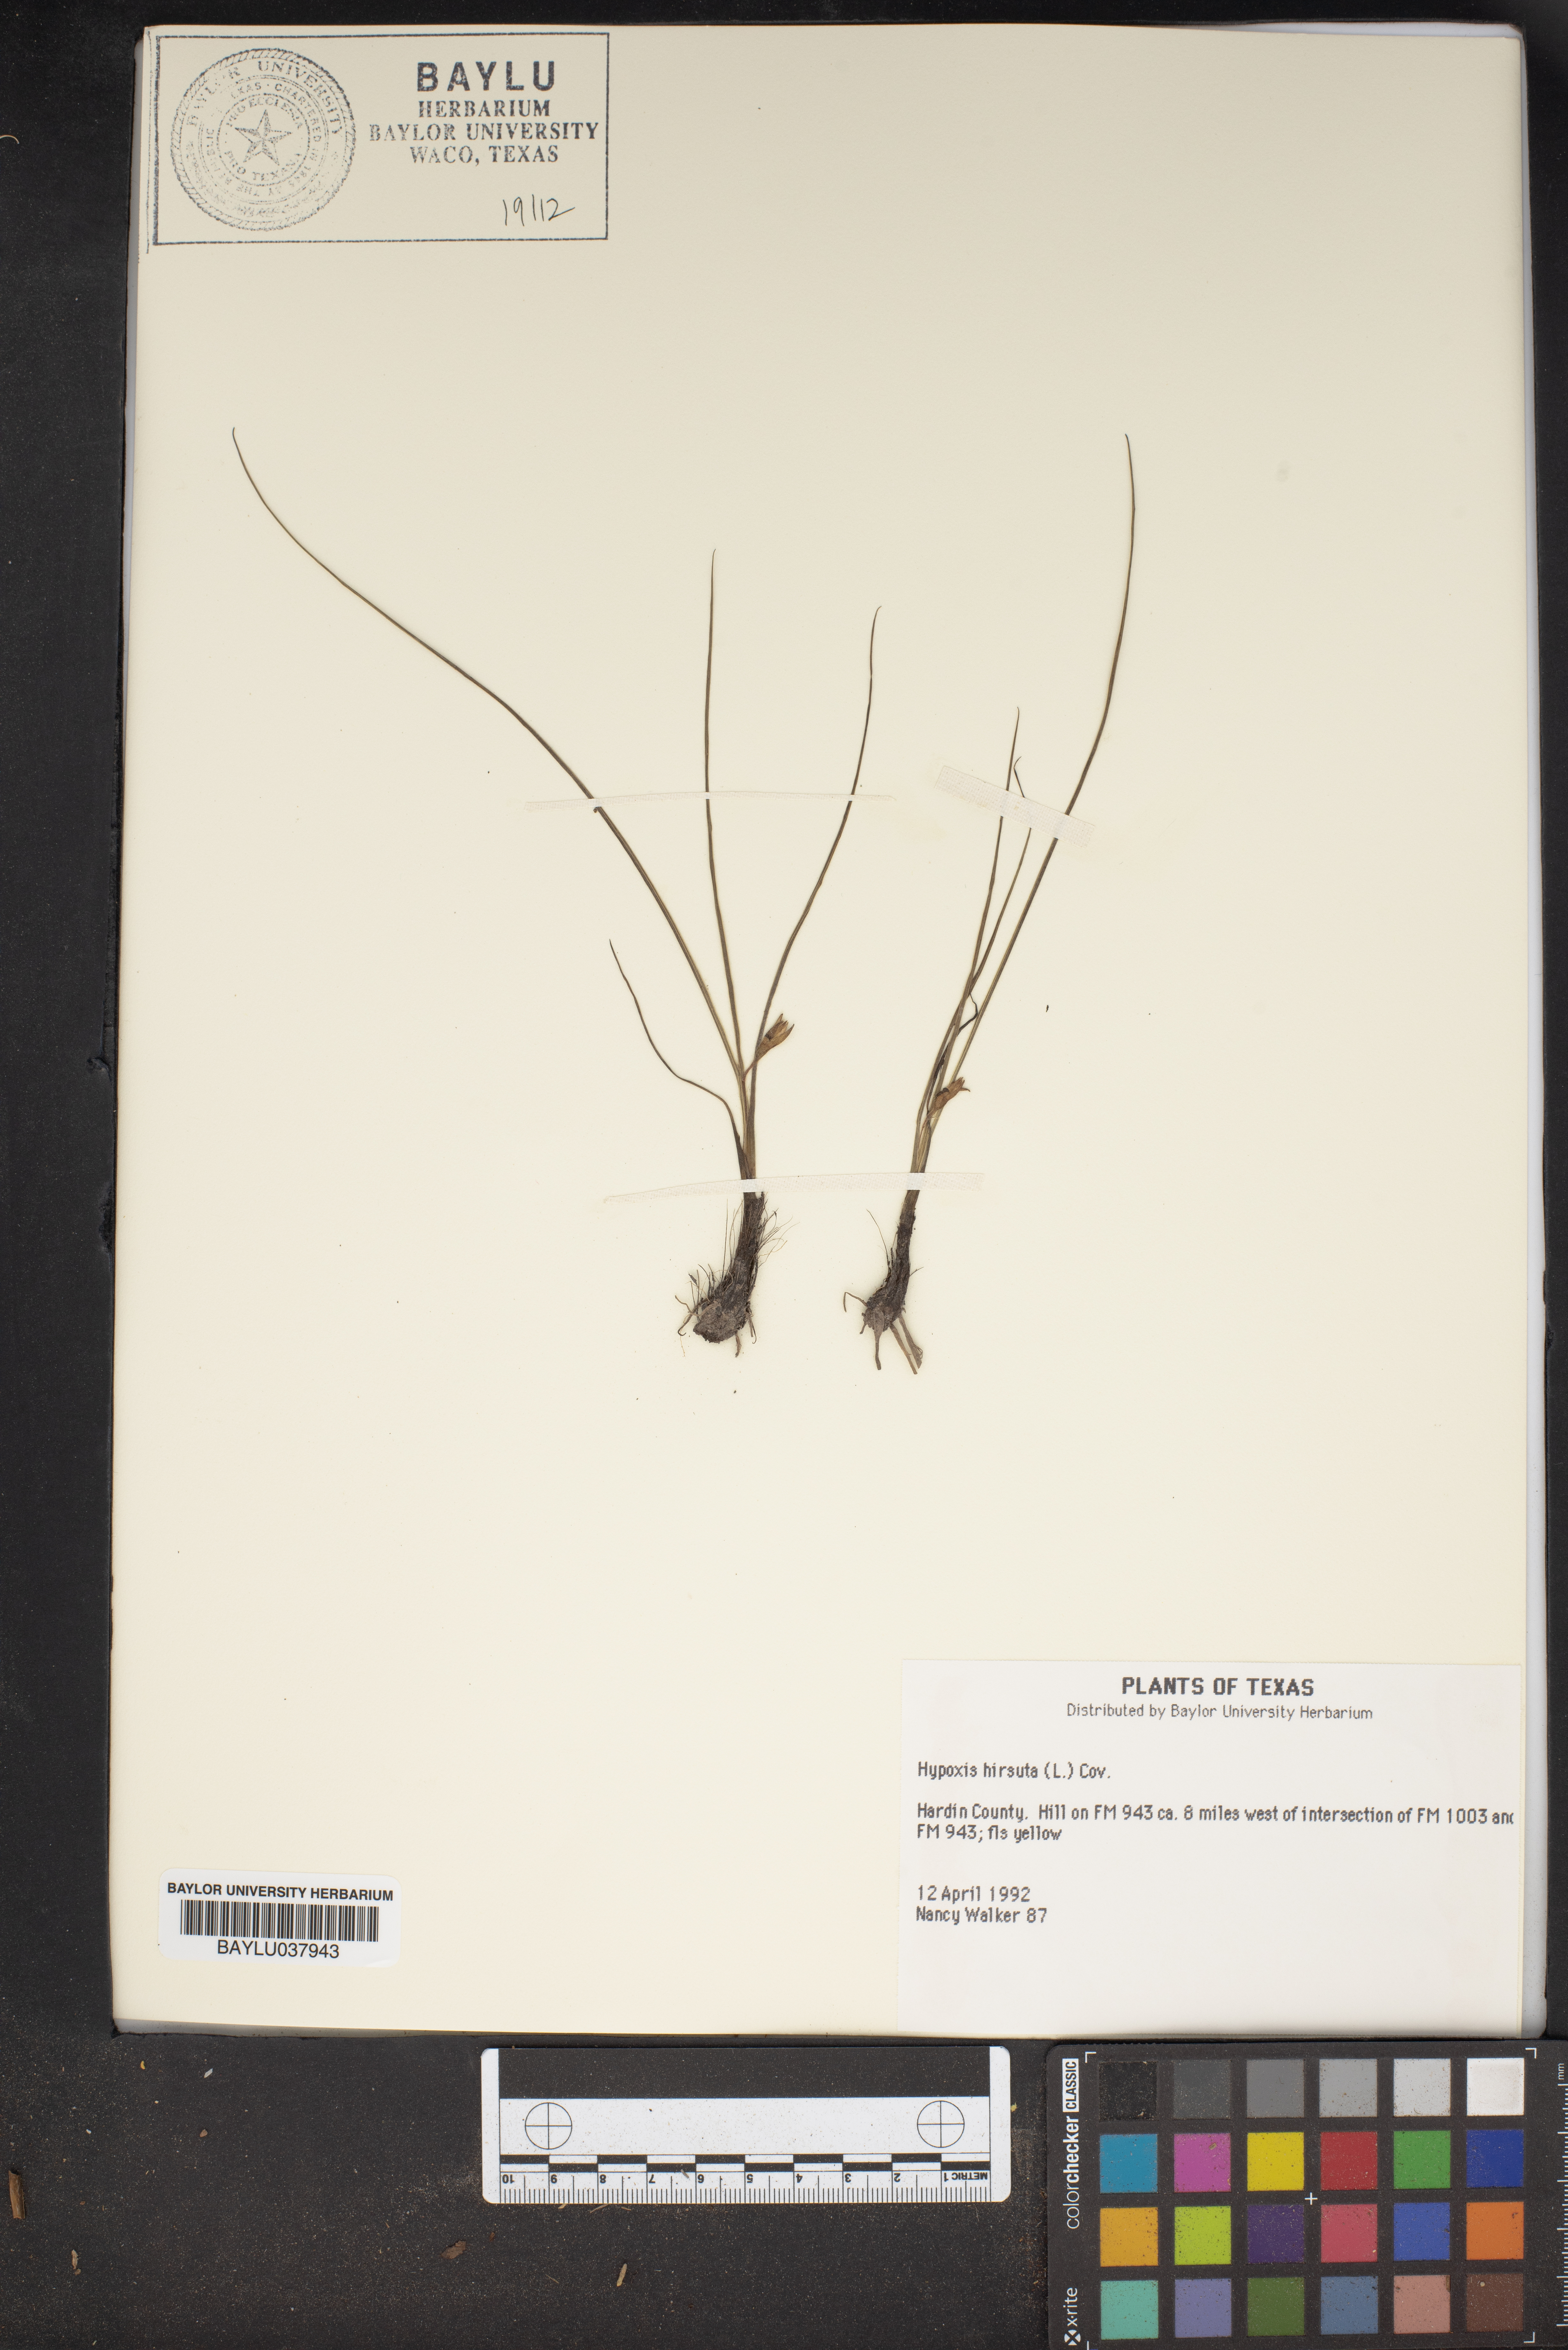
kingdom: Plantae
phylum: Tracheophyta
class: Liliopsida
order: Asparagales
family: Hypoxidaceae
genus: Hypoxis
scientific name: Hypoxis hirsuta
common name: Common goldstar
